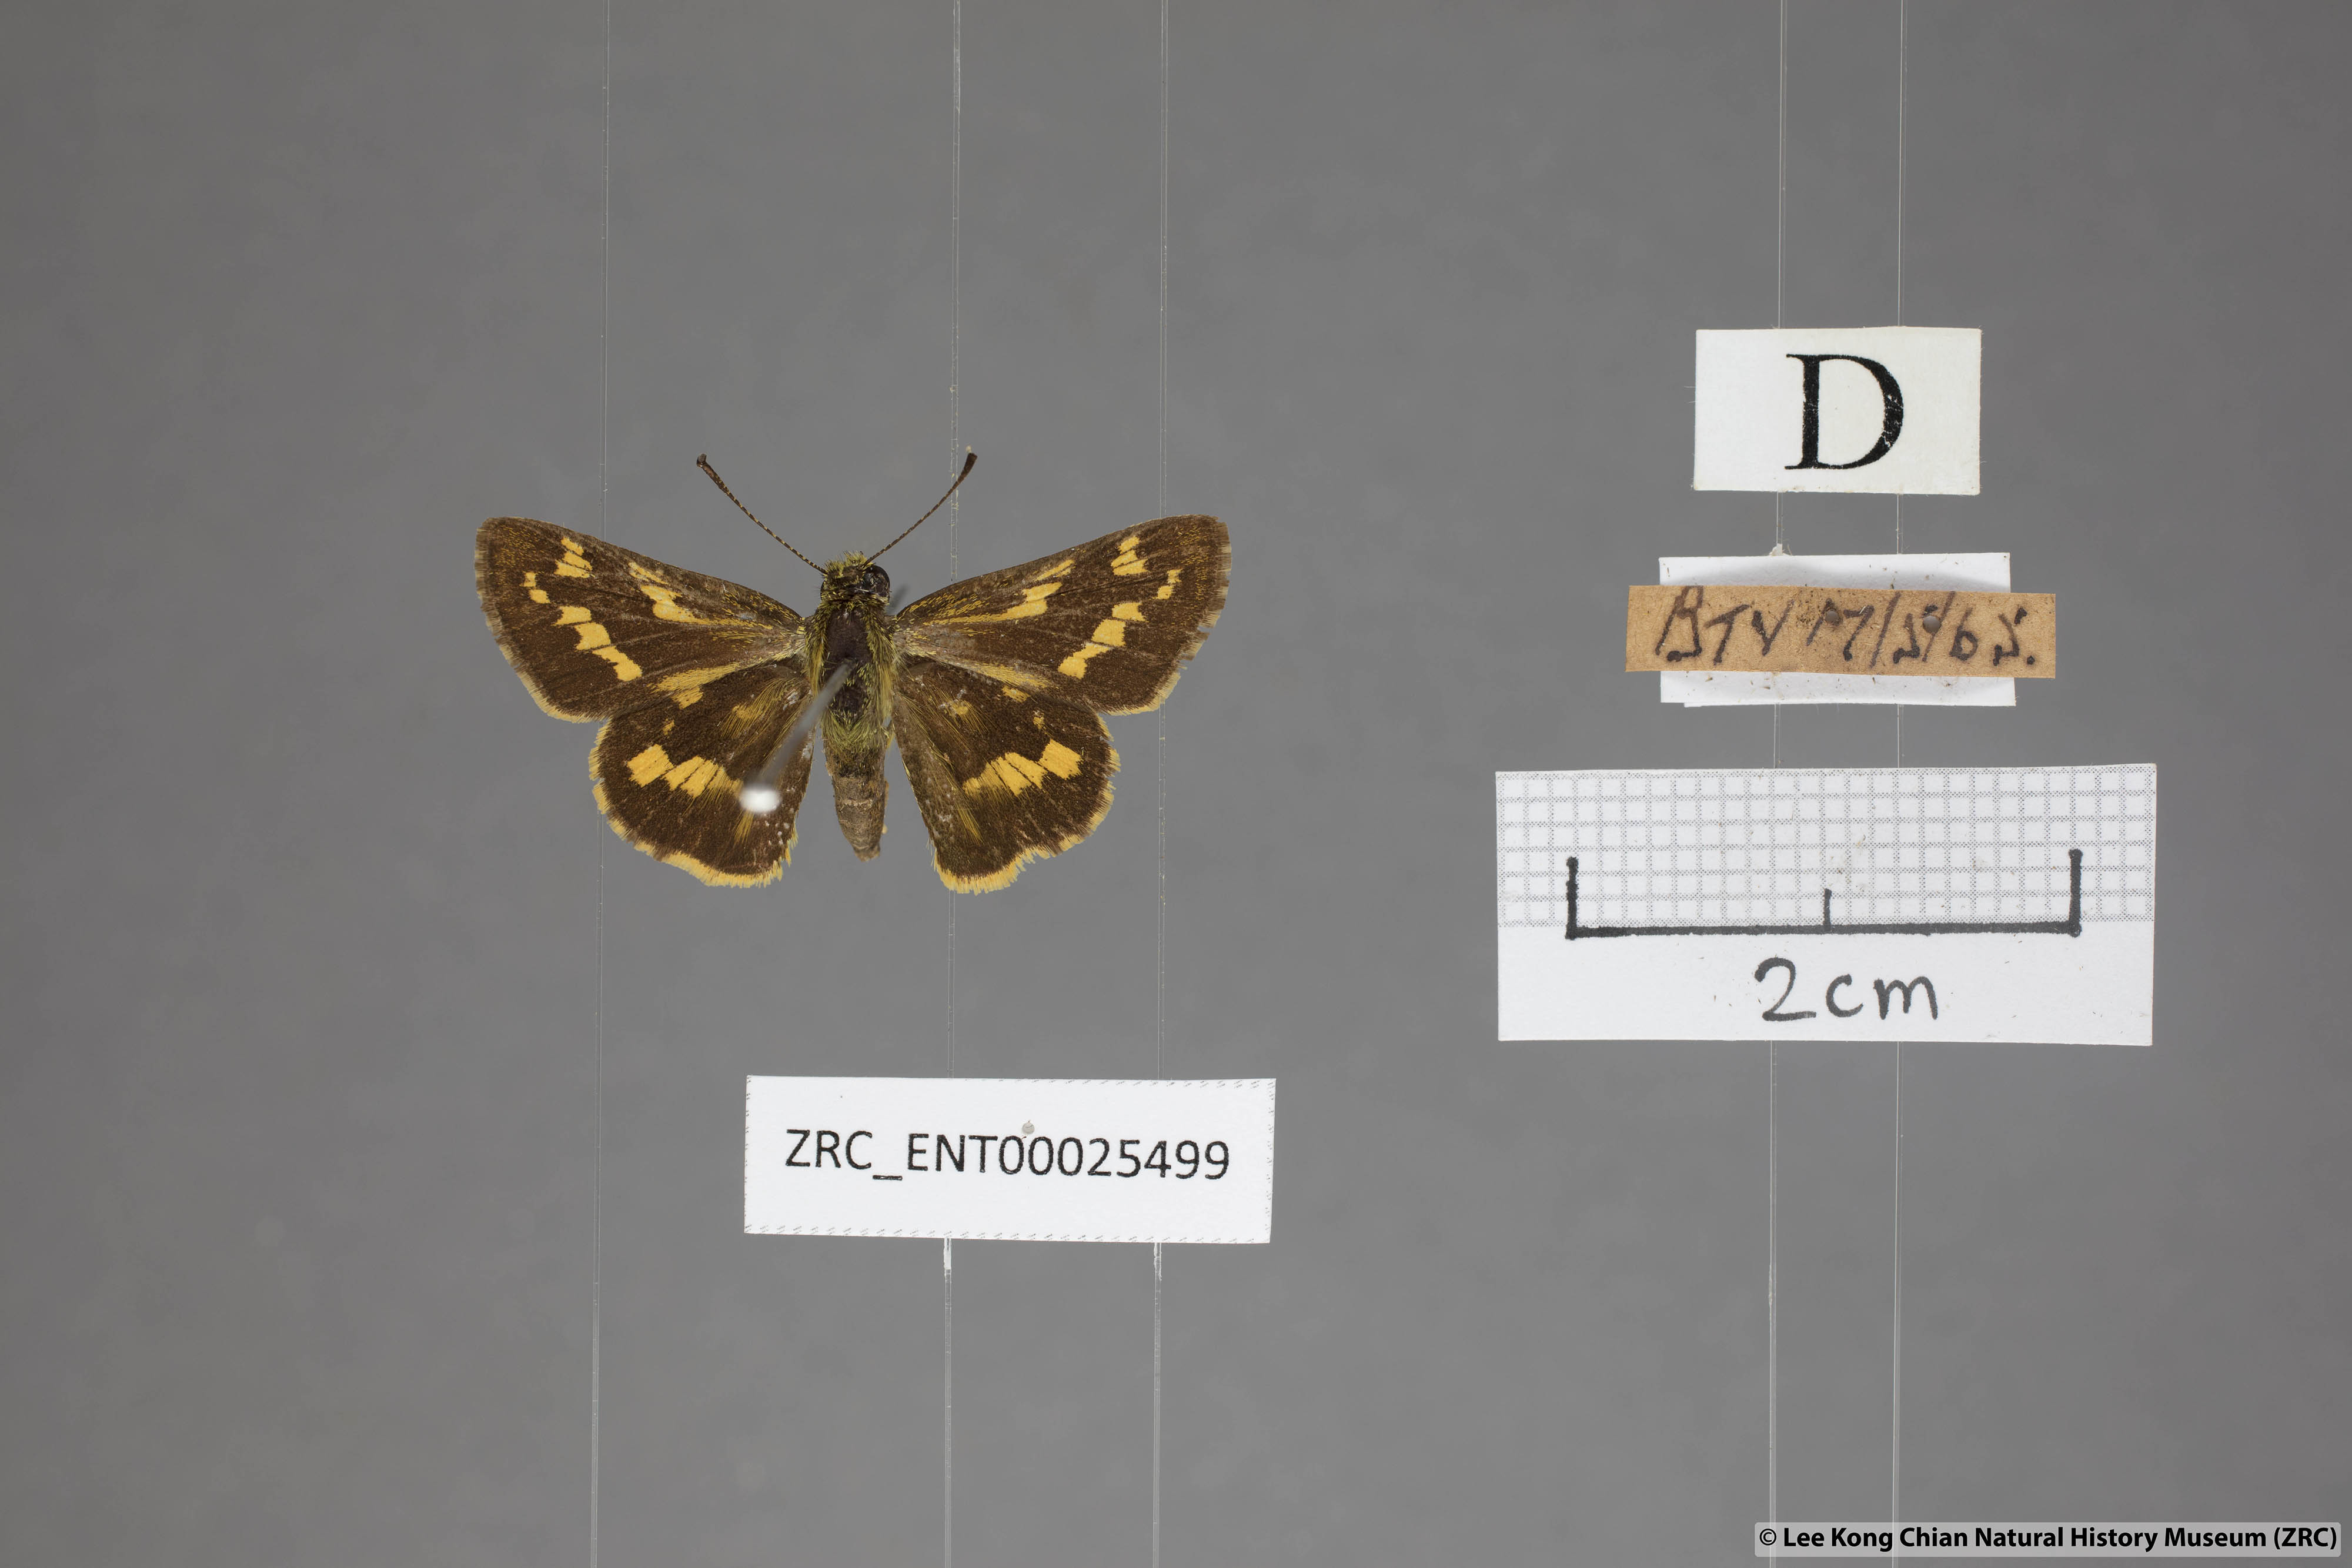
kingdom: Animalia
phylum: Arthropoda
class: Insecta
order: Lepidoptera
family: Hesperiidae
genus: Potanthus
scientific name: Potanthus trachala
